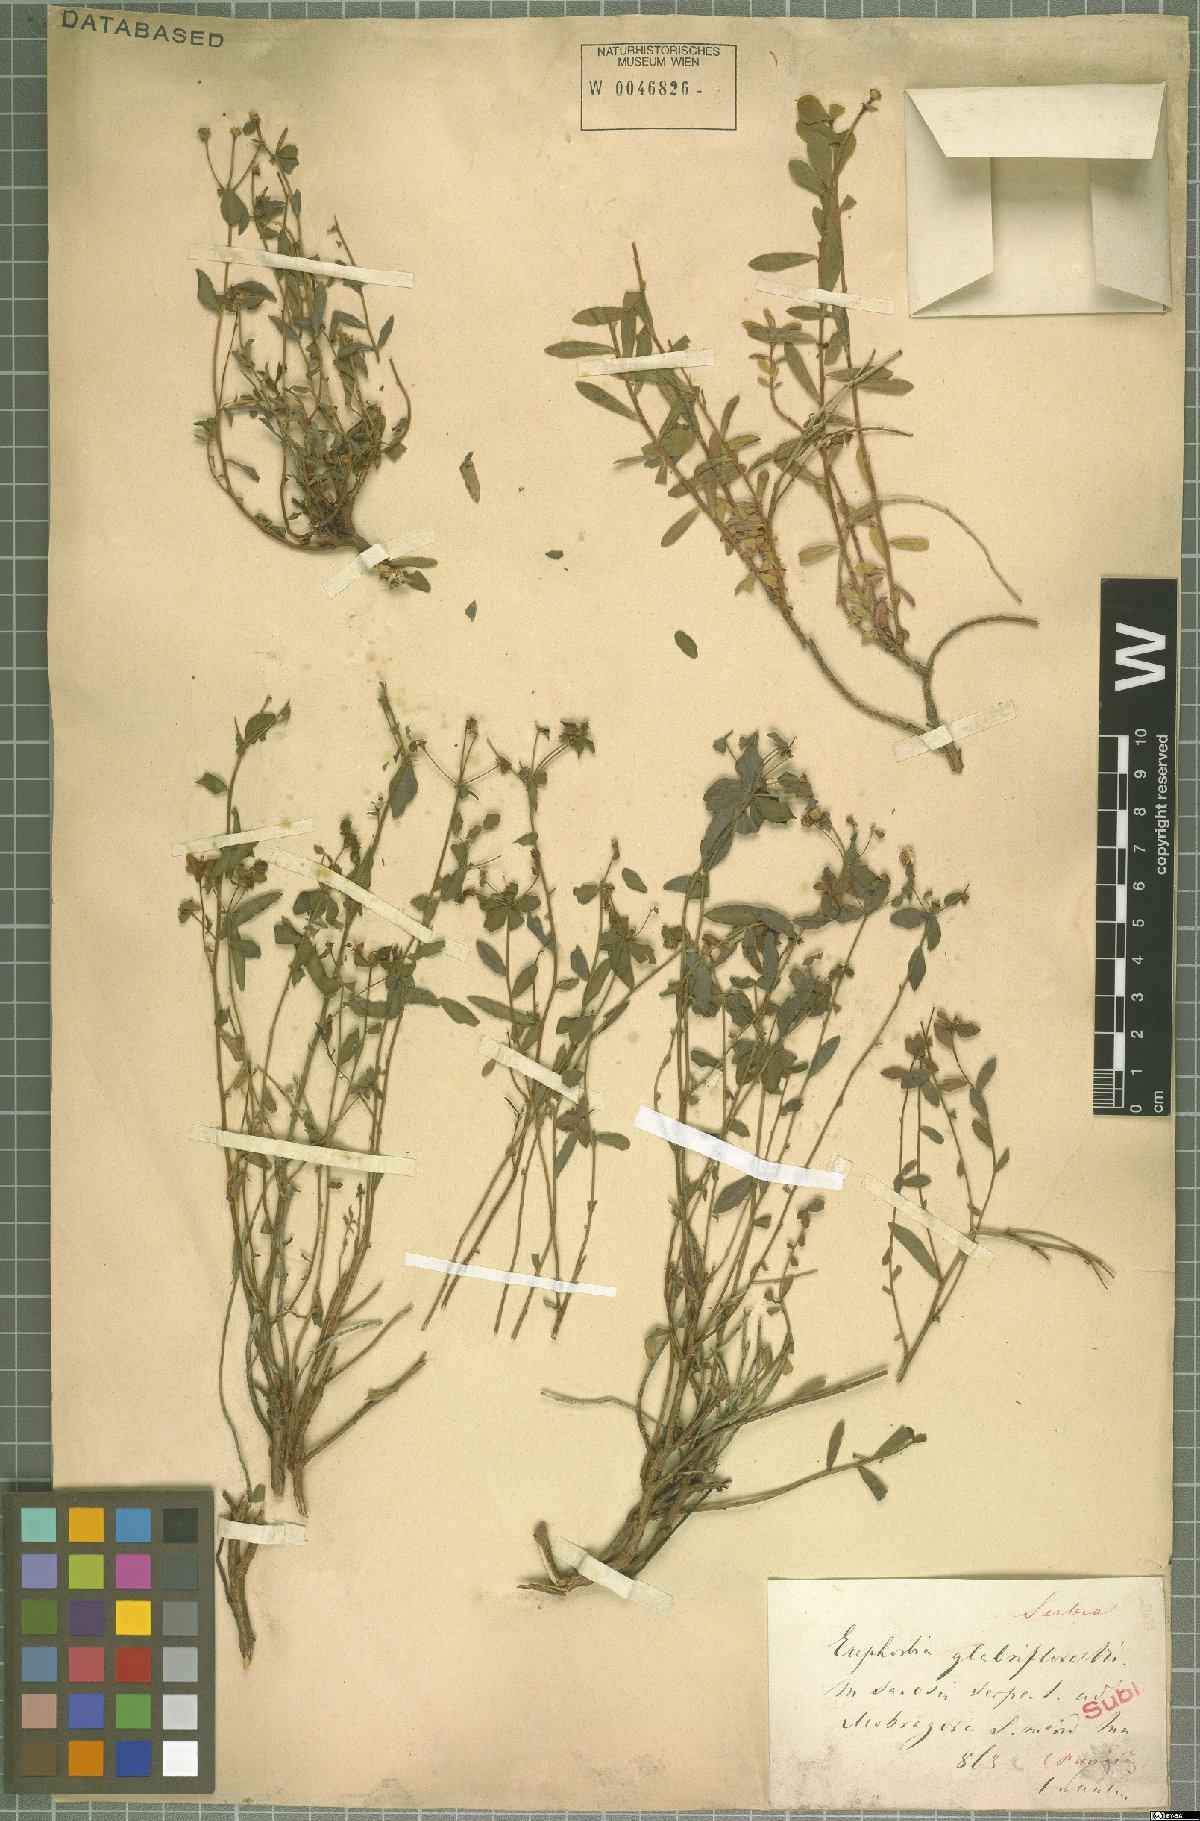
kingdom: Plantae
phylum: Tracheophyta
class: Magnoliopsida
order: Malpighiales
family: Euphorbiaceae
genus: Euphorbia
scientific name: Euphorbia spinosa
